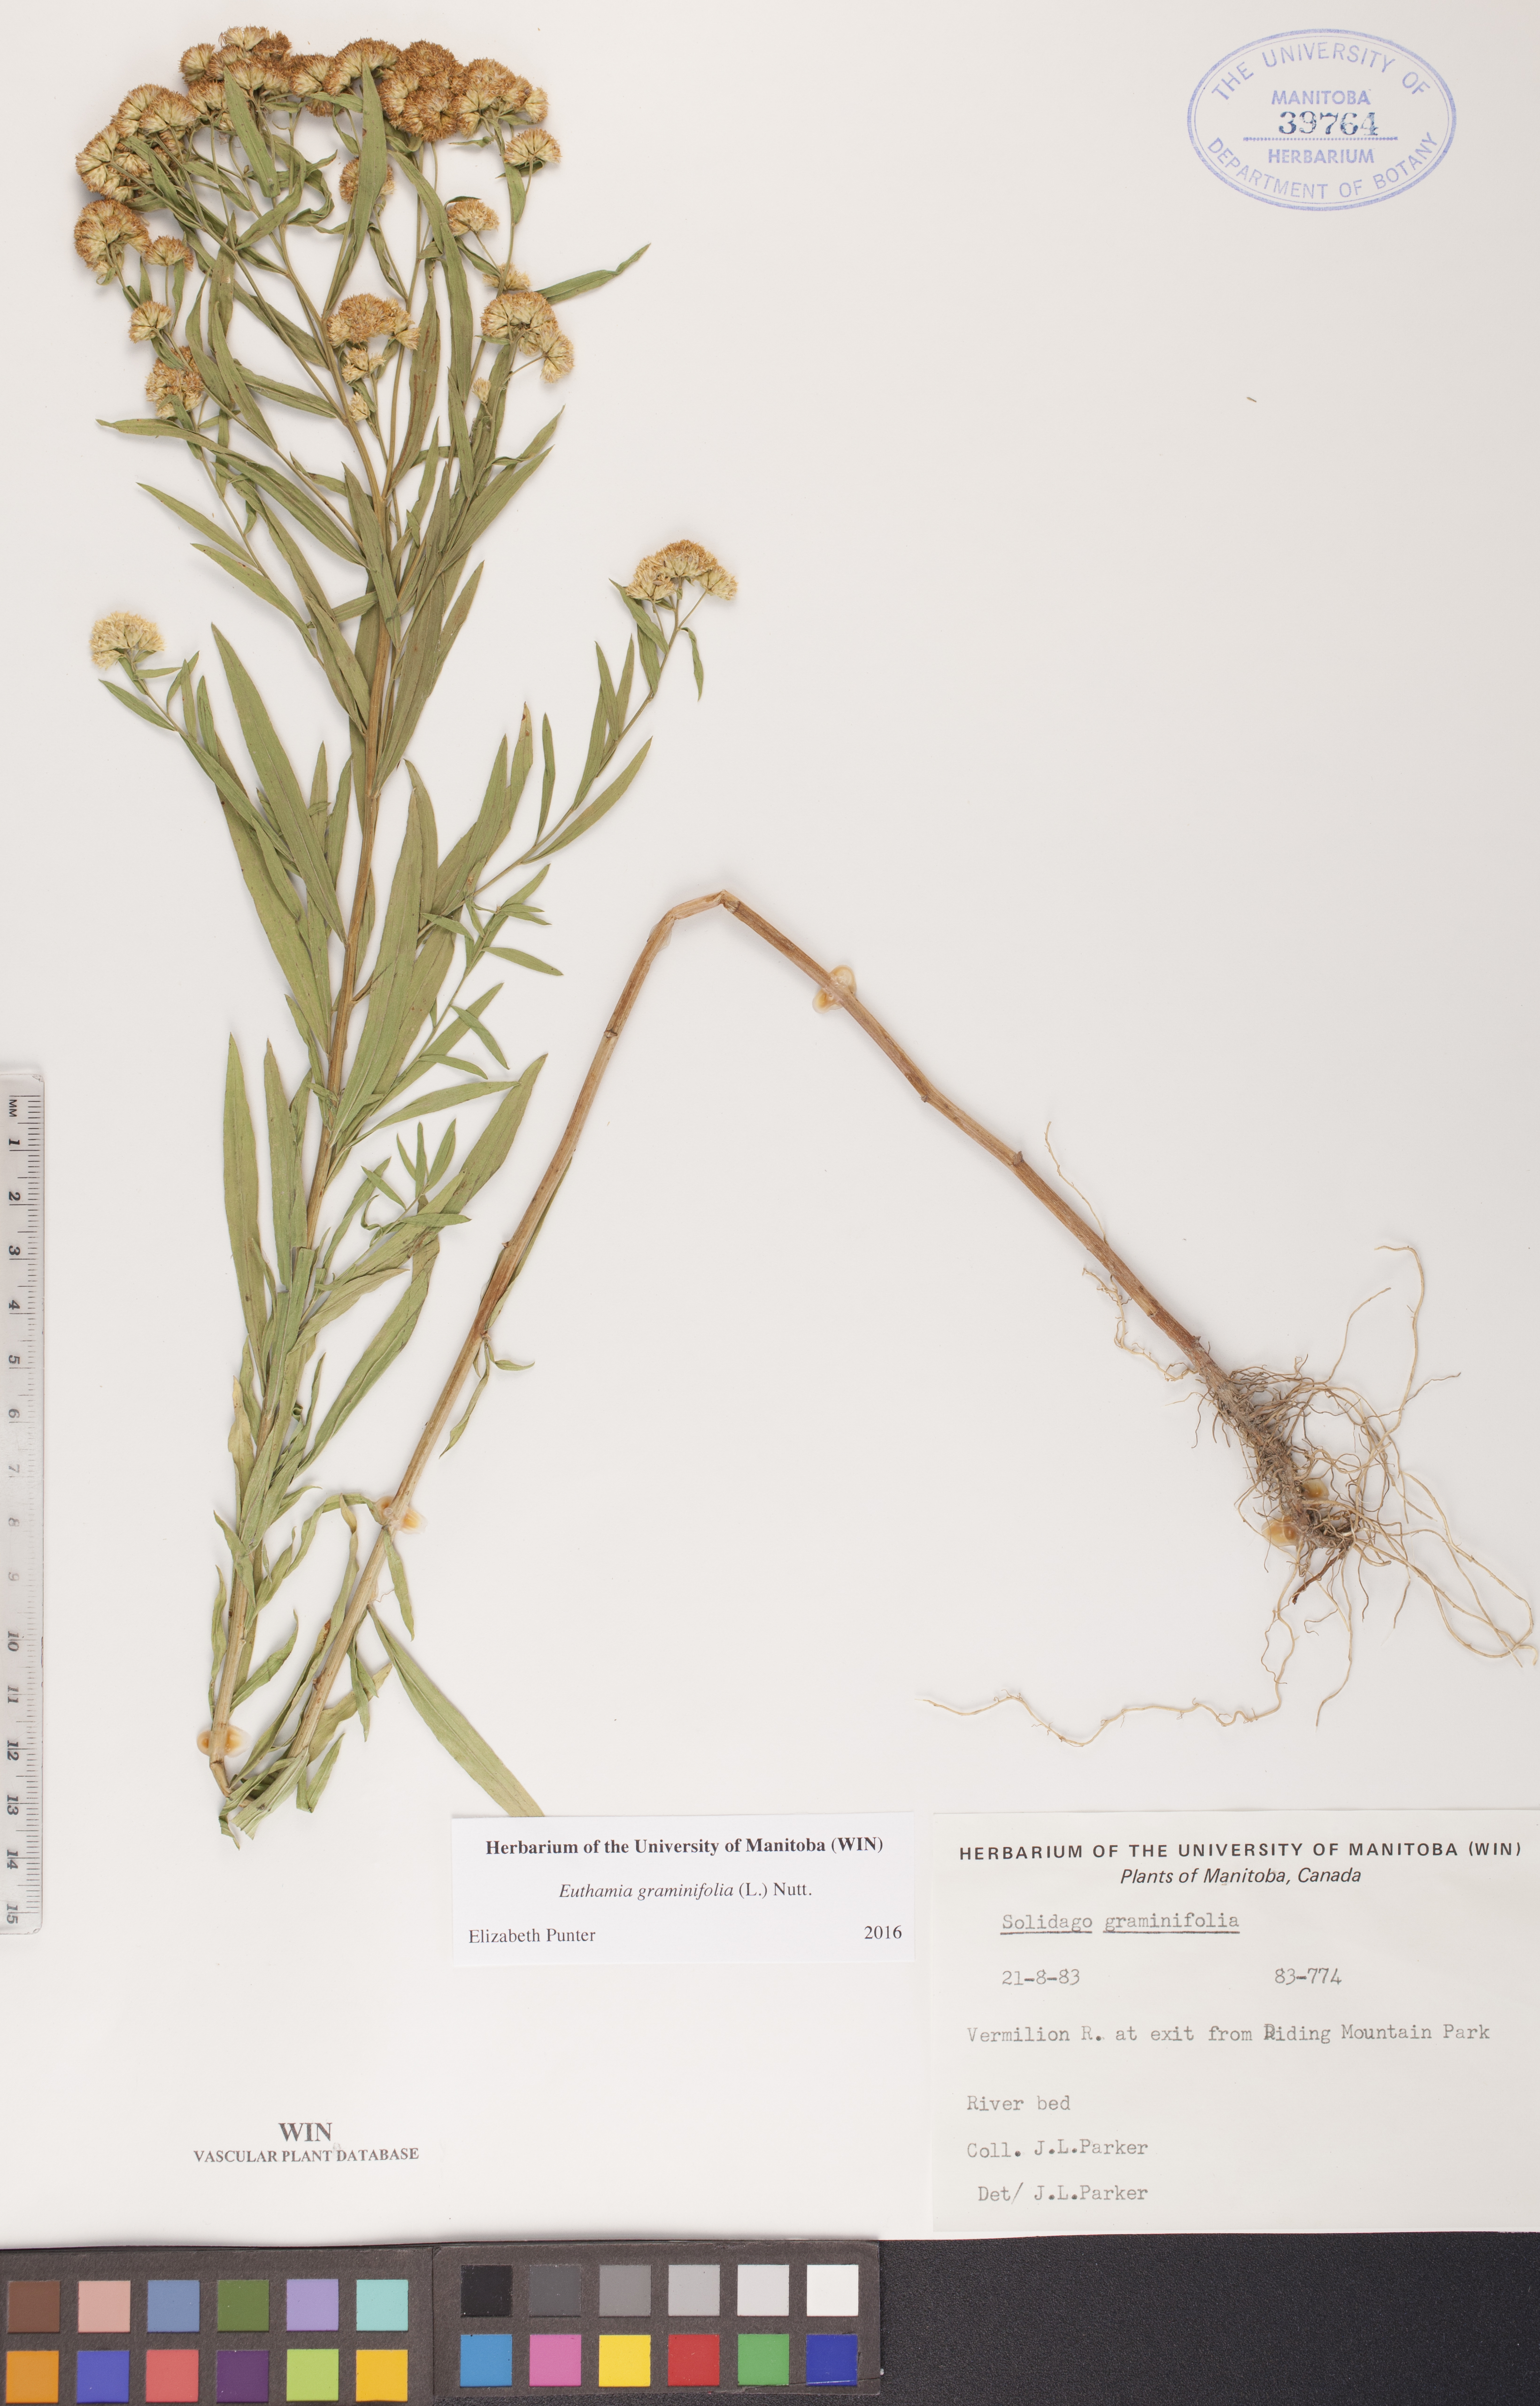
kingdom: Plantae
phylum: Tracheophyta
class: Magnoliopsida
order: Asterales
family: Asteraceae
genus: Euthamia
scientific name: Euthamia graminifolia
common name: Common goldentop
